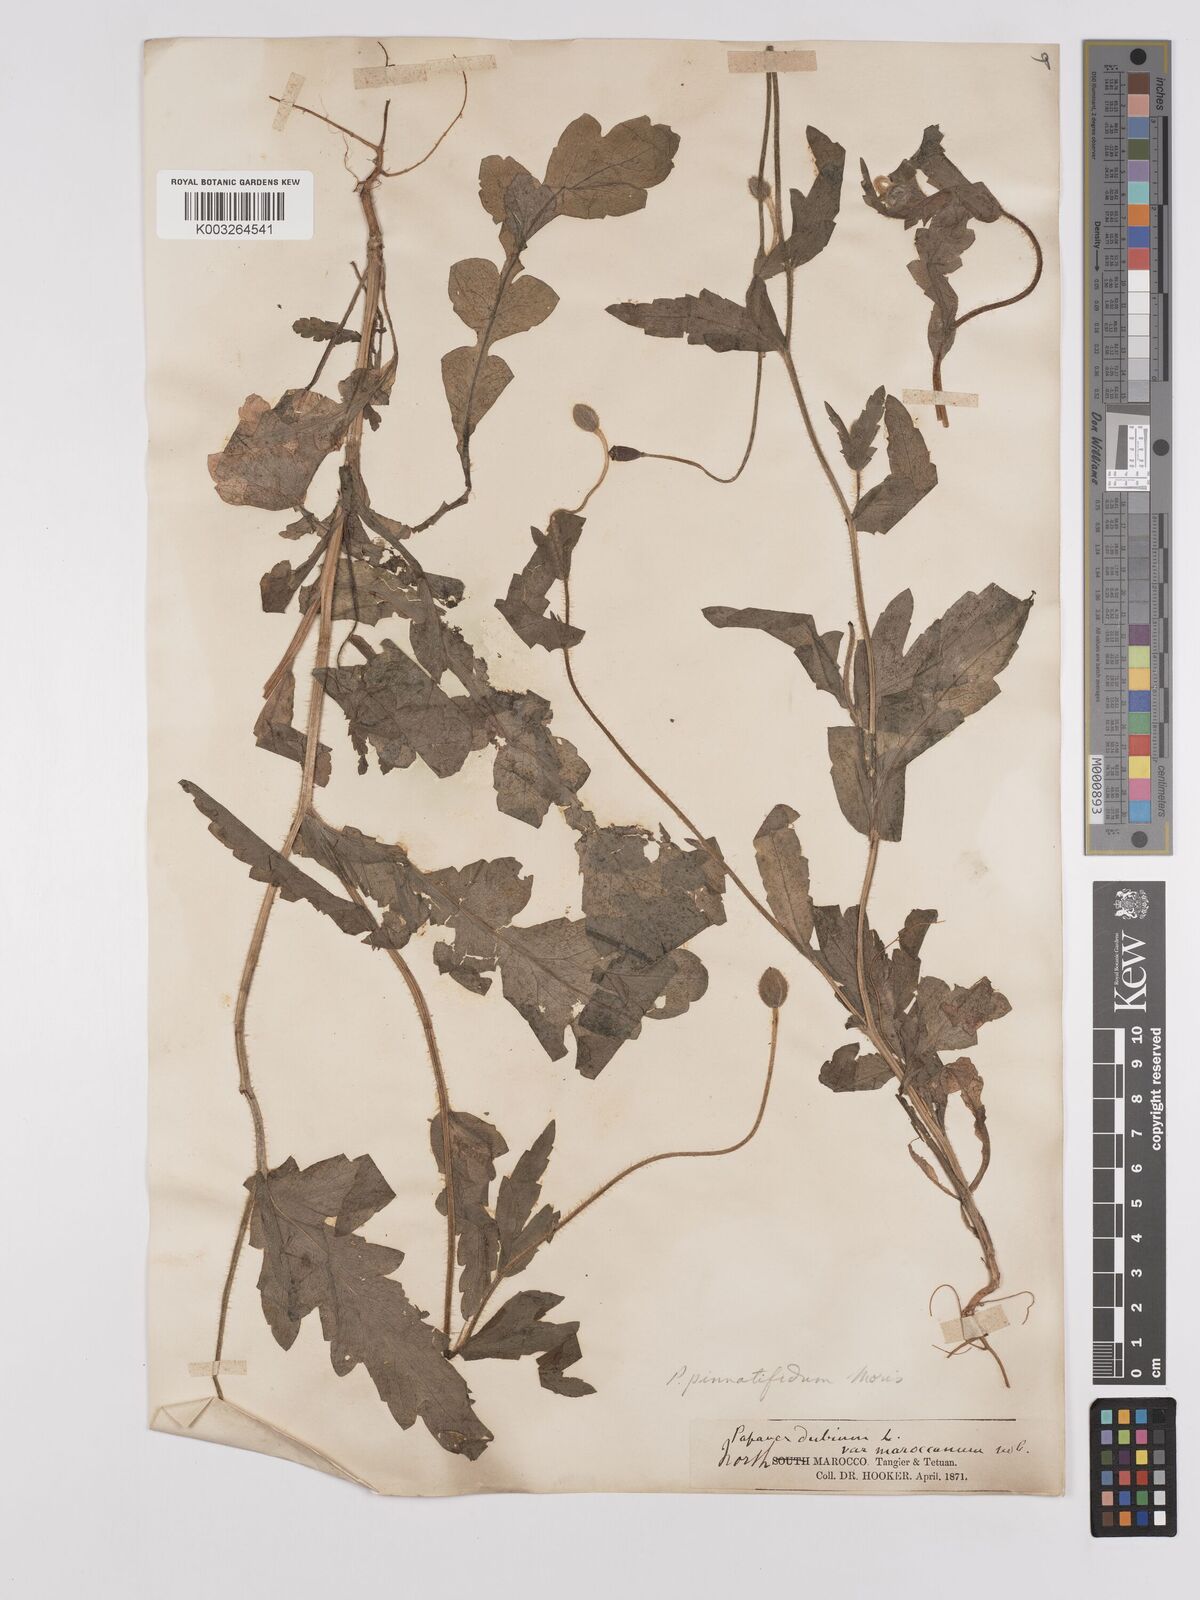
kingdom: Plantae
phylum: Tracheophyta
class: Magnoliopsida
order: Ranunculales
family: Papaveraceae
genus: Papaver
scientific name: Papaver pinnatifidum
